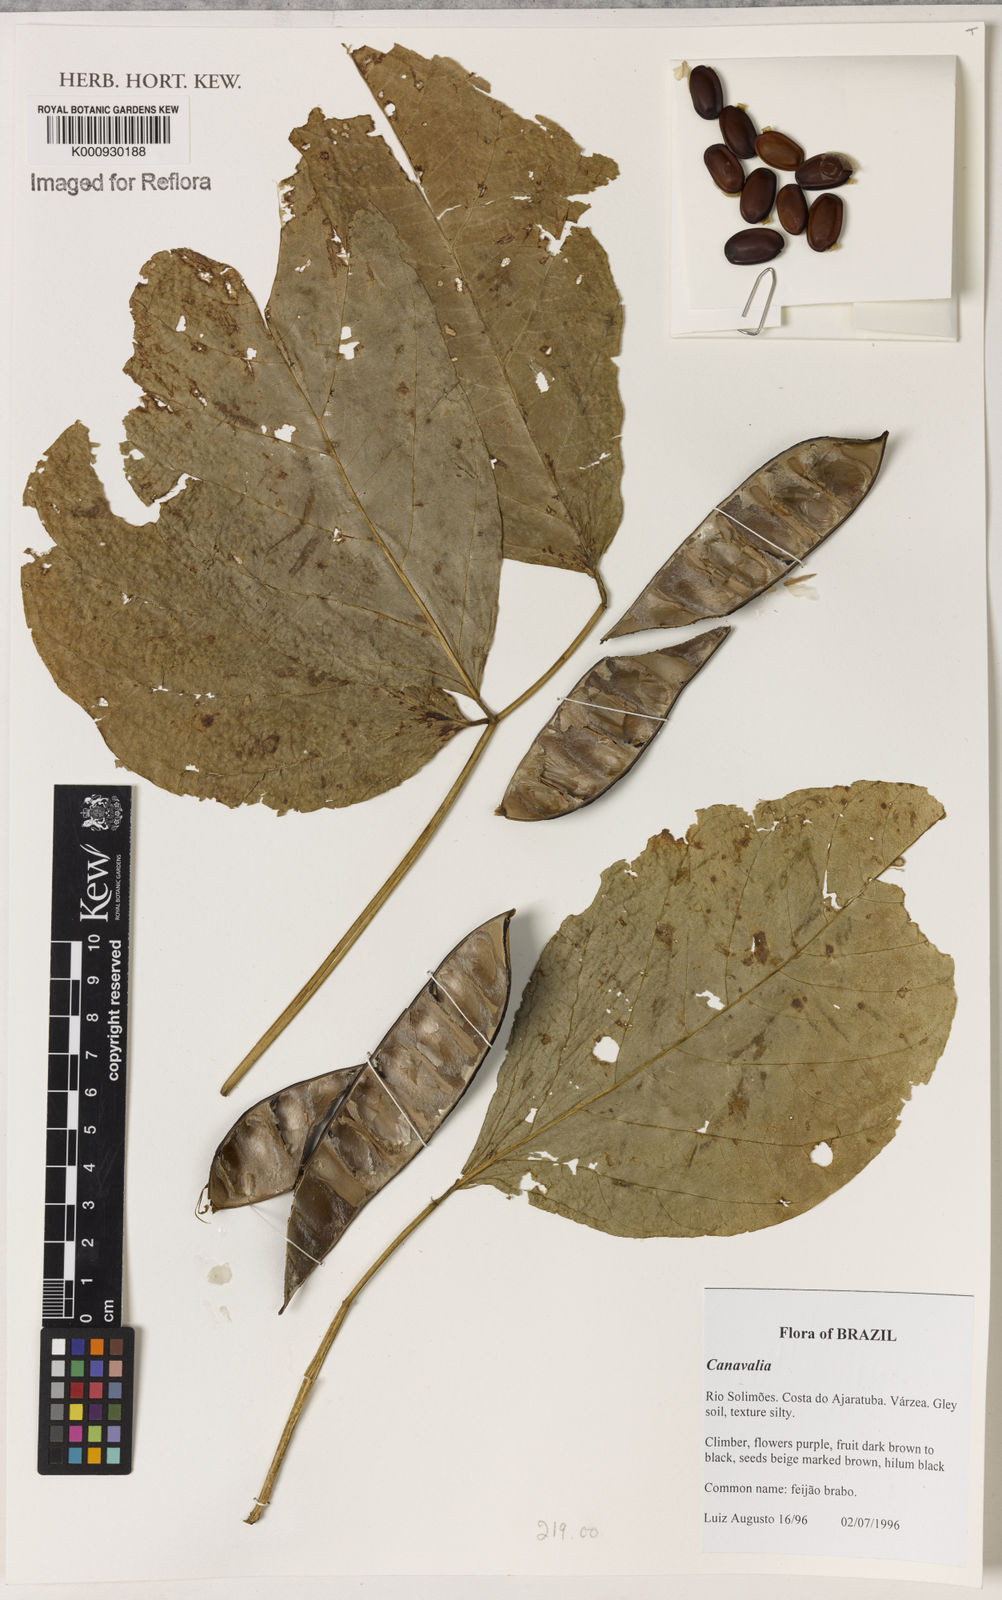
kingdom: Plantae
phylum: Tracheophyta
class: Magnoliopsida
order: Fabales
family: Fabaceae
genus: Canavalia
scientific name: Canavalia
